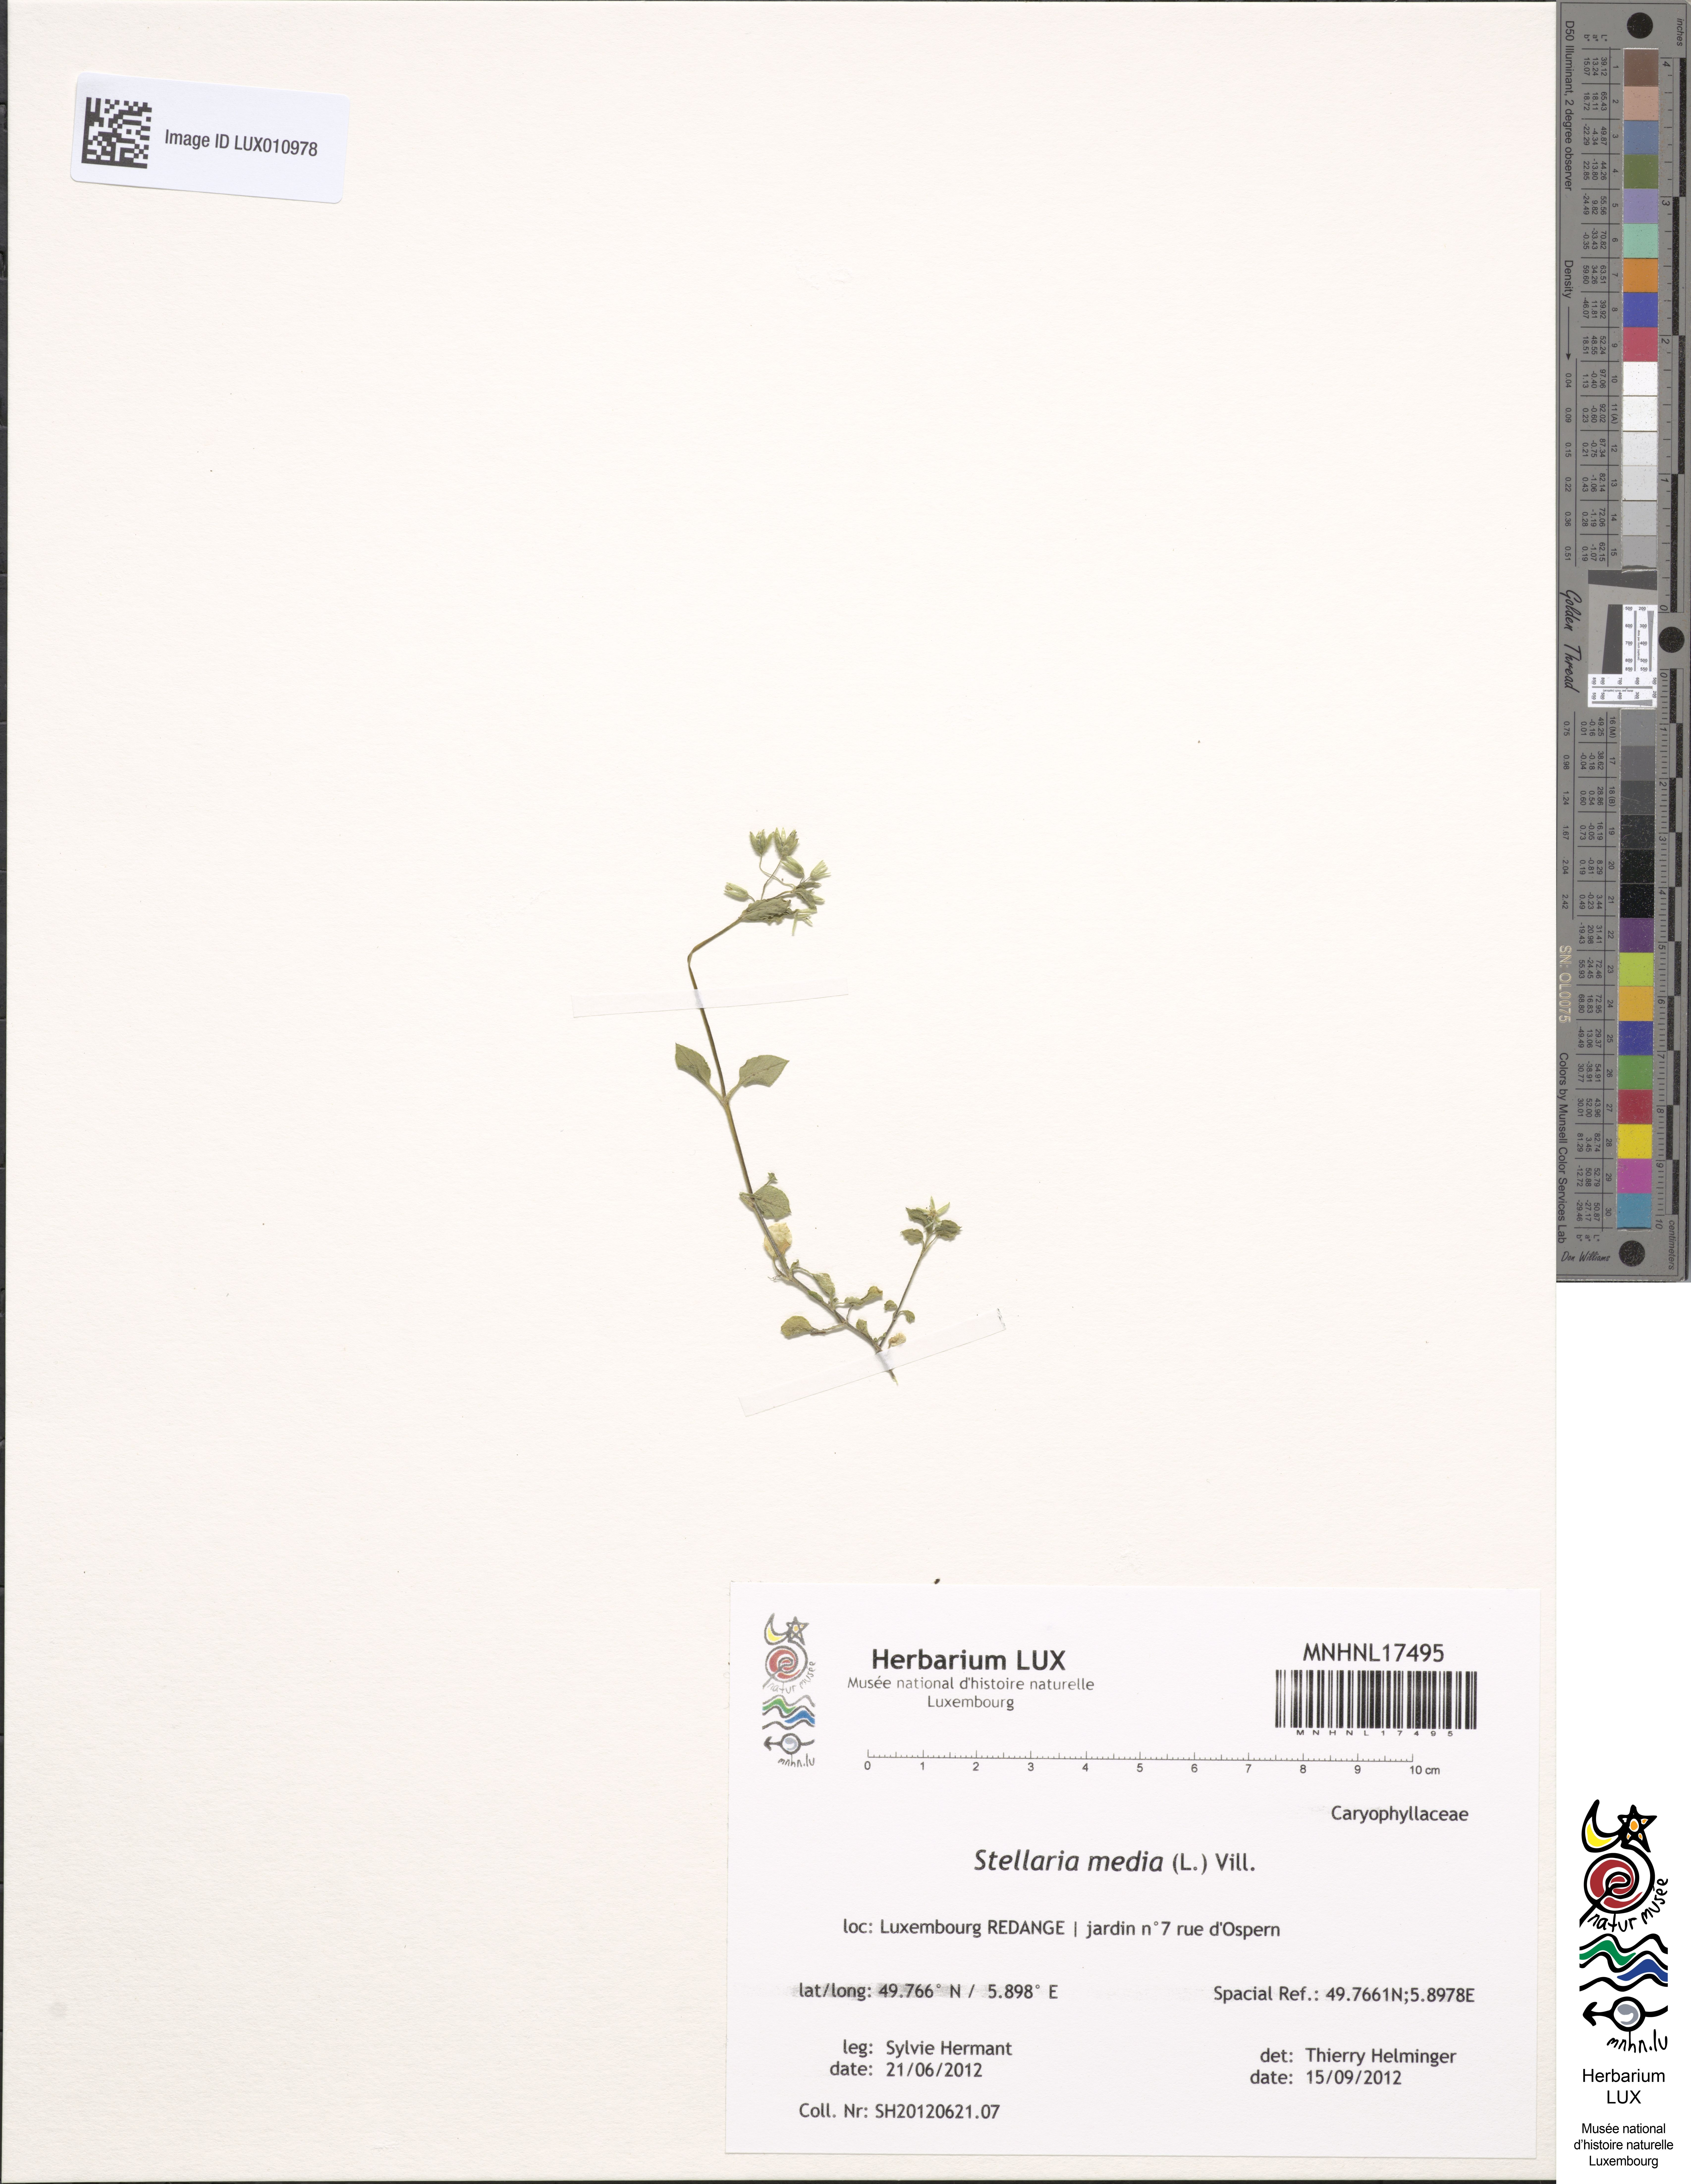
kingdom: Plantae
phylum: Tracheophyta
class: Magnoliopsida
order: Caryophyllales
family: Caryophyllaceae
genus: Stellaria
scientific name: Stellaria media
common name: Common chickweed
